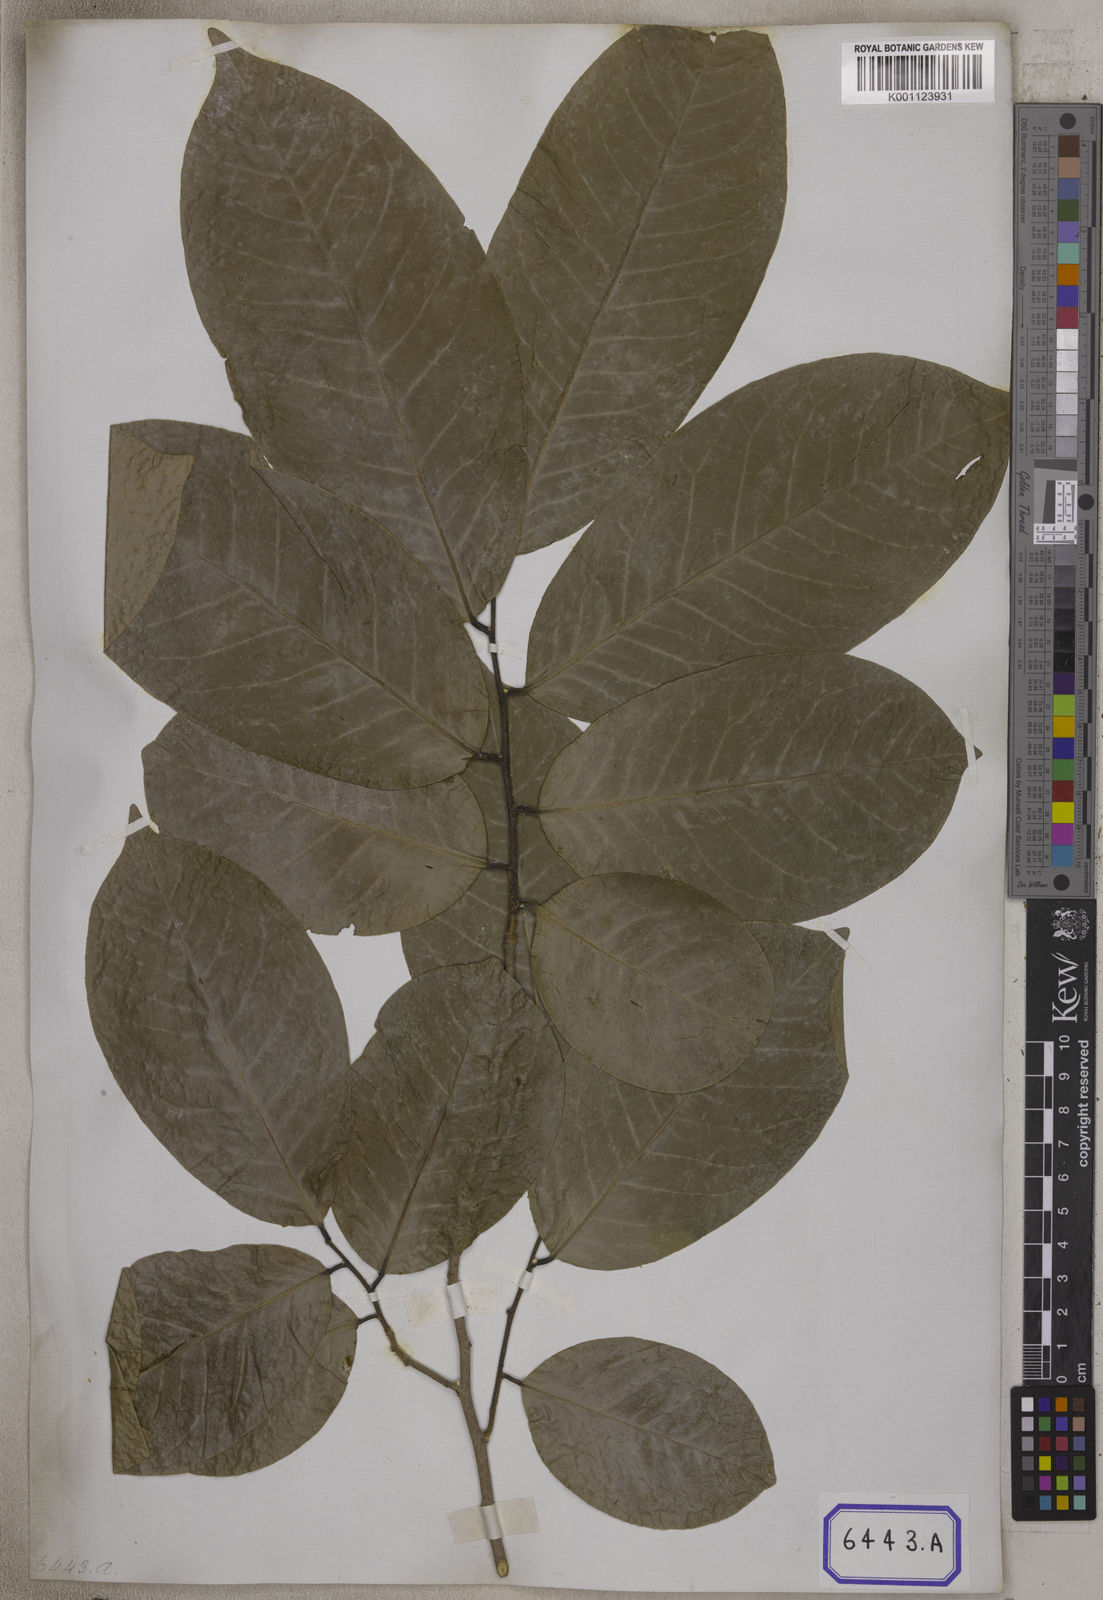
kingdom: Plantae
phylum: Tracheophyta
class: Magnoliopsida
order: Magnoliales
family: Annonaceae
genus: Guatteria
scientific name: Guatteria
